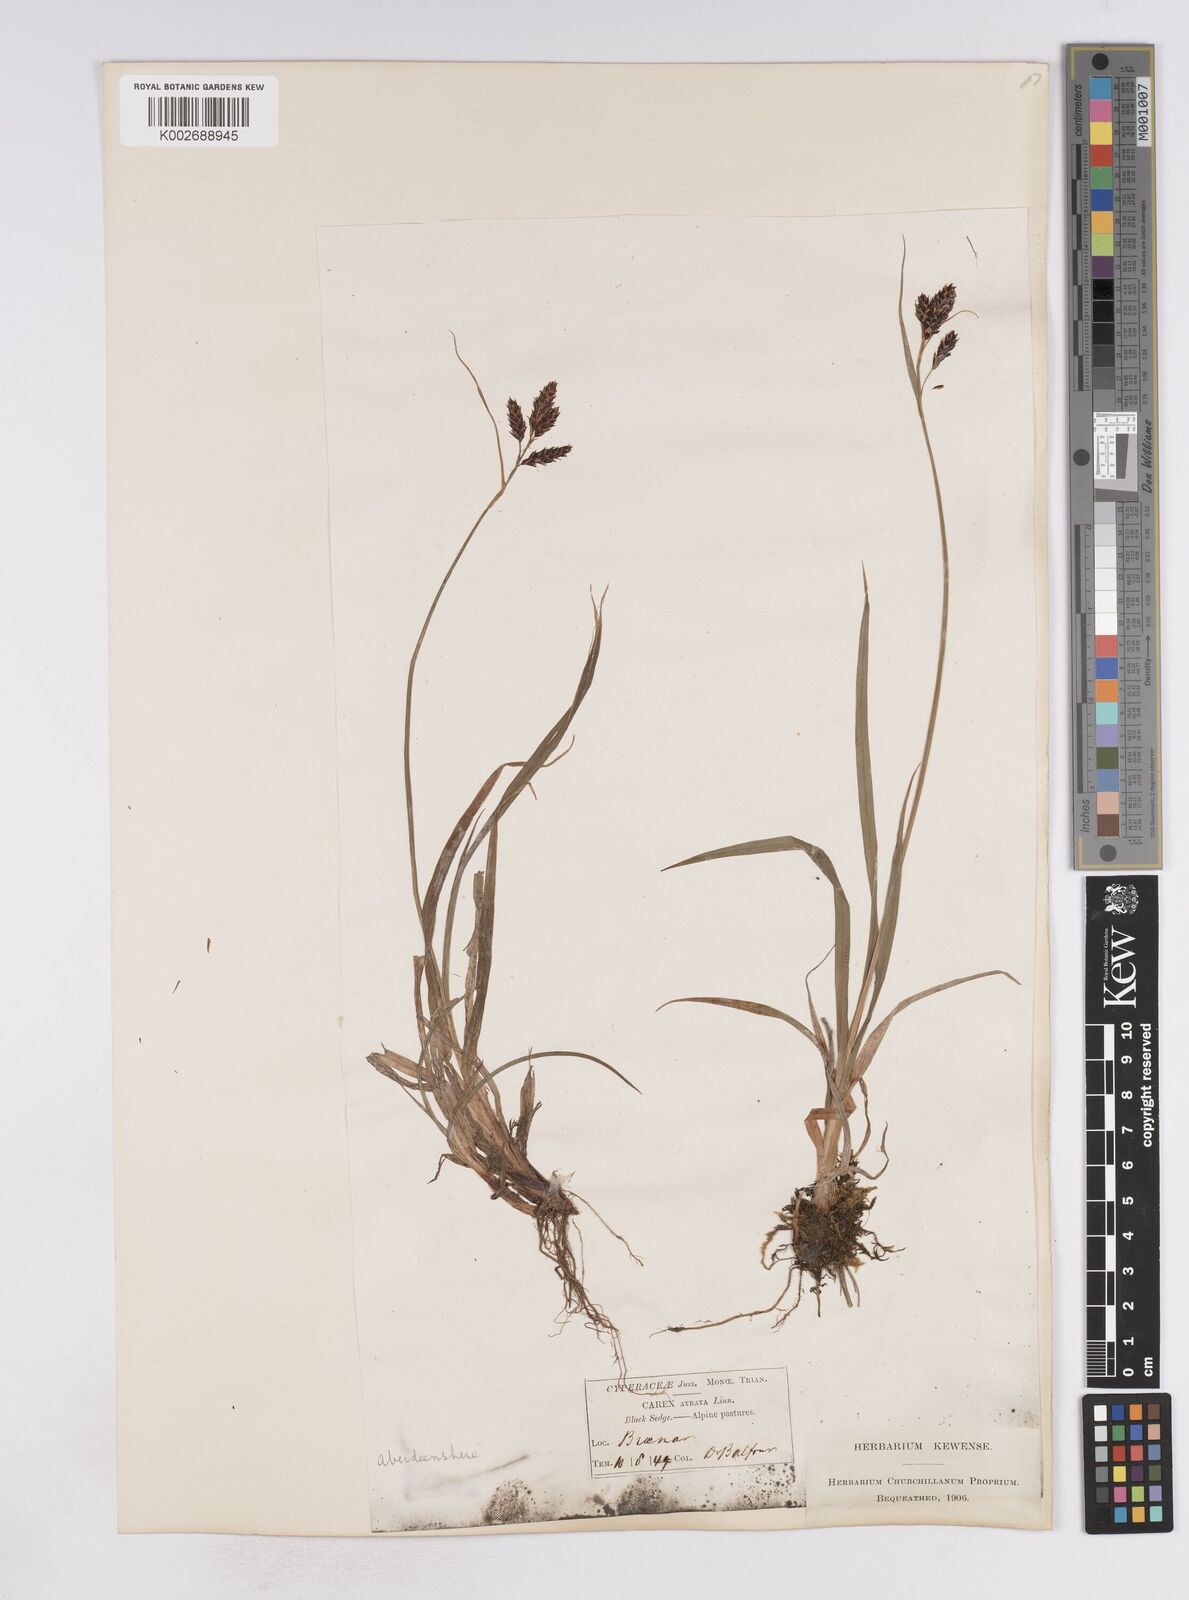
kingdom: Plantae
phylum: Tracheophyta
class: Liliopsida
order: Poales
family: Cyperaceae
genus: Carex
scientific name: Carex atrata
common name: Black alpine sedge
